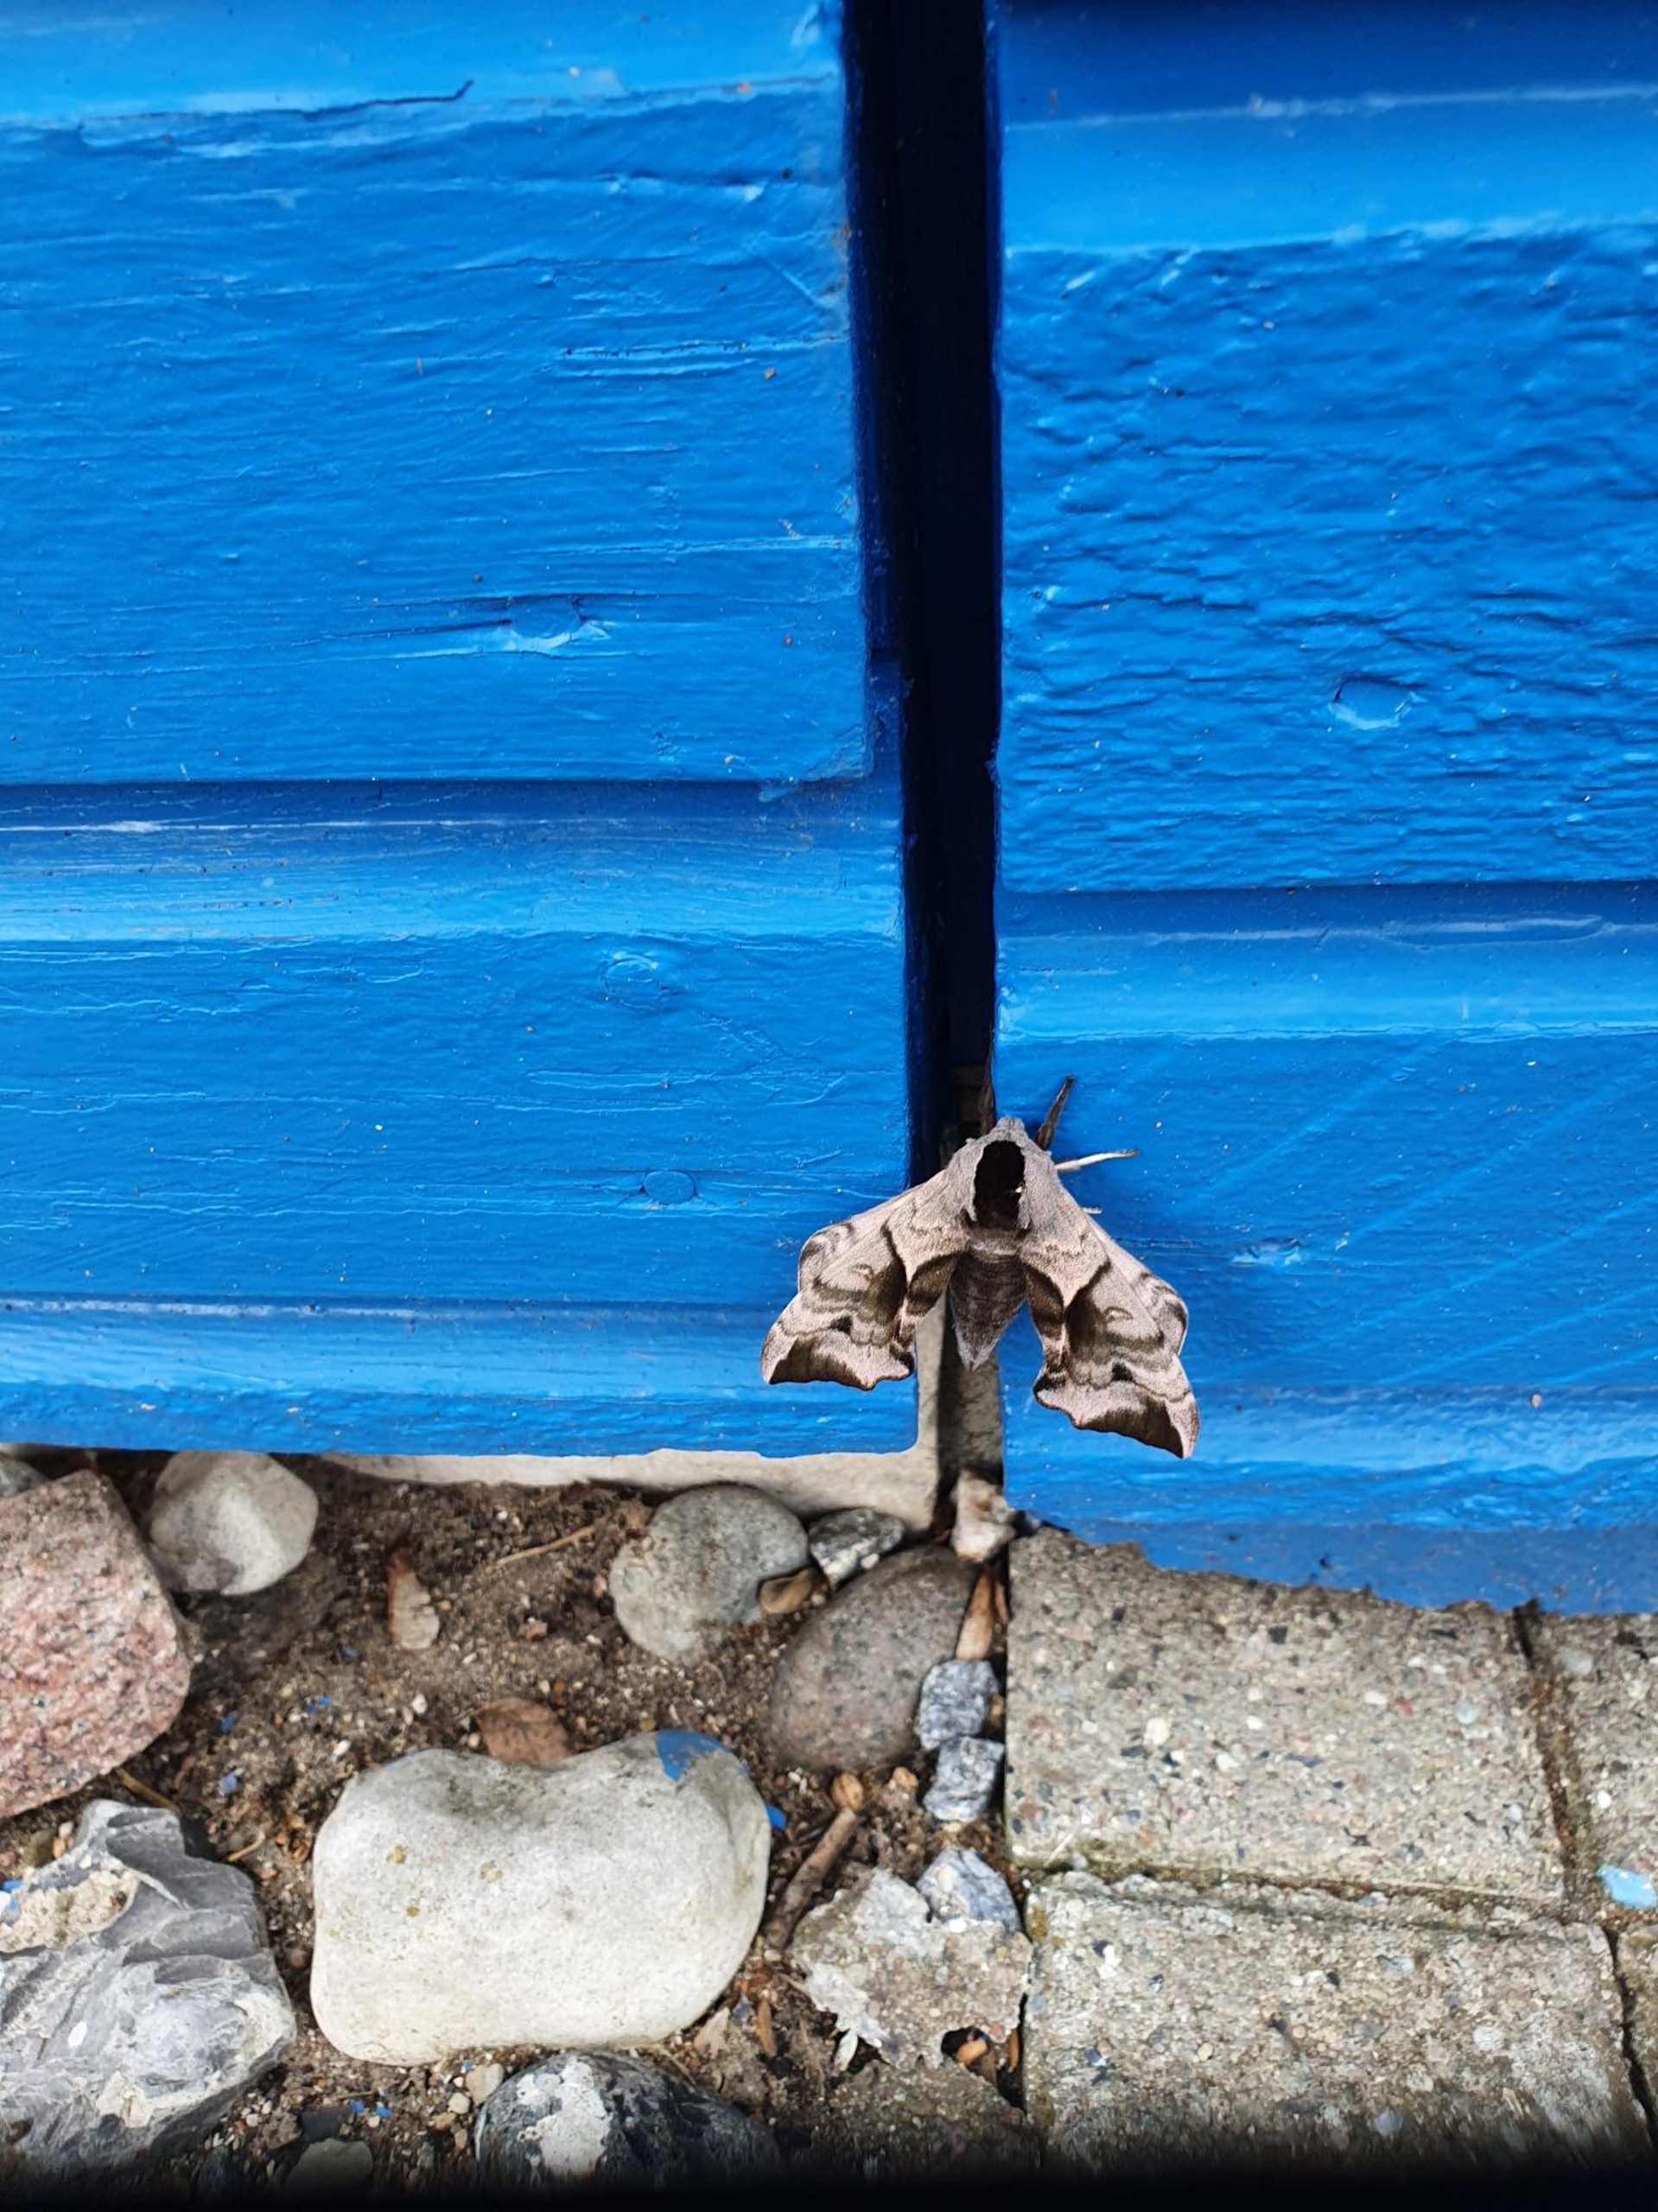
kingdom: Animalia
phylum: Arthropoda
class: Insecta
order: Lepidoptera
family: Sphingidae
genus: Smerinthus
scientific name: Smerinthus ocellata
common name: Aftenpåfugleøje
